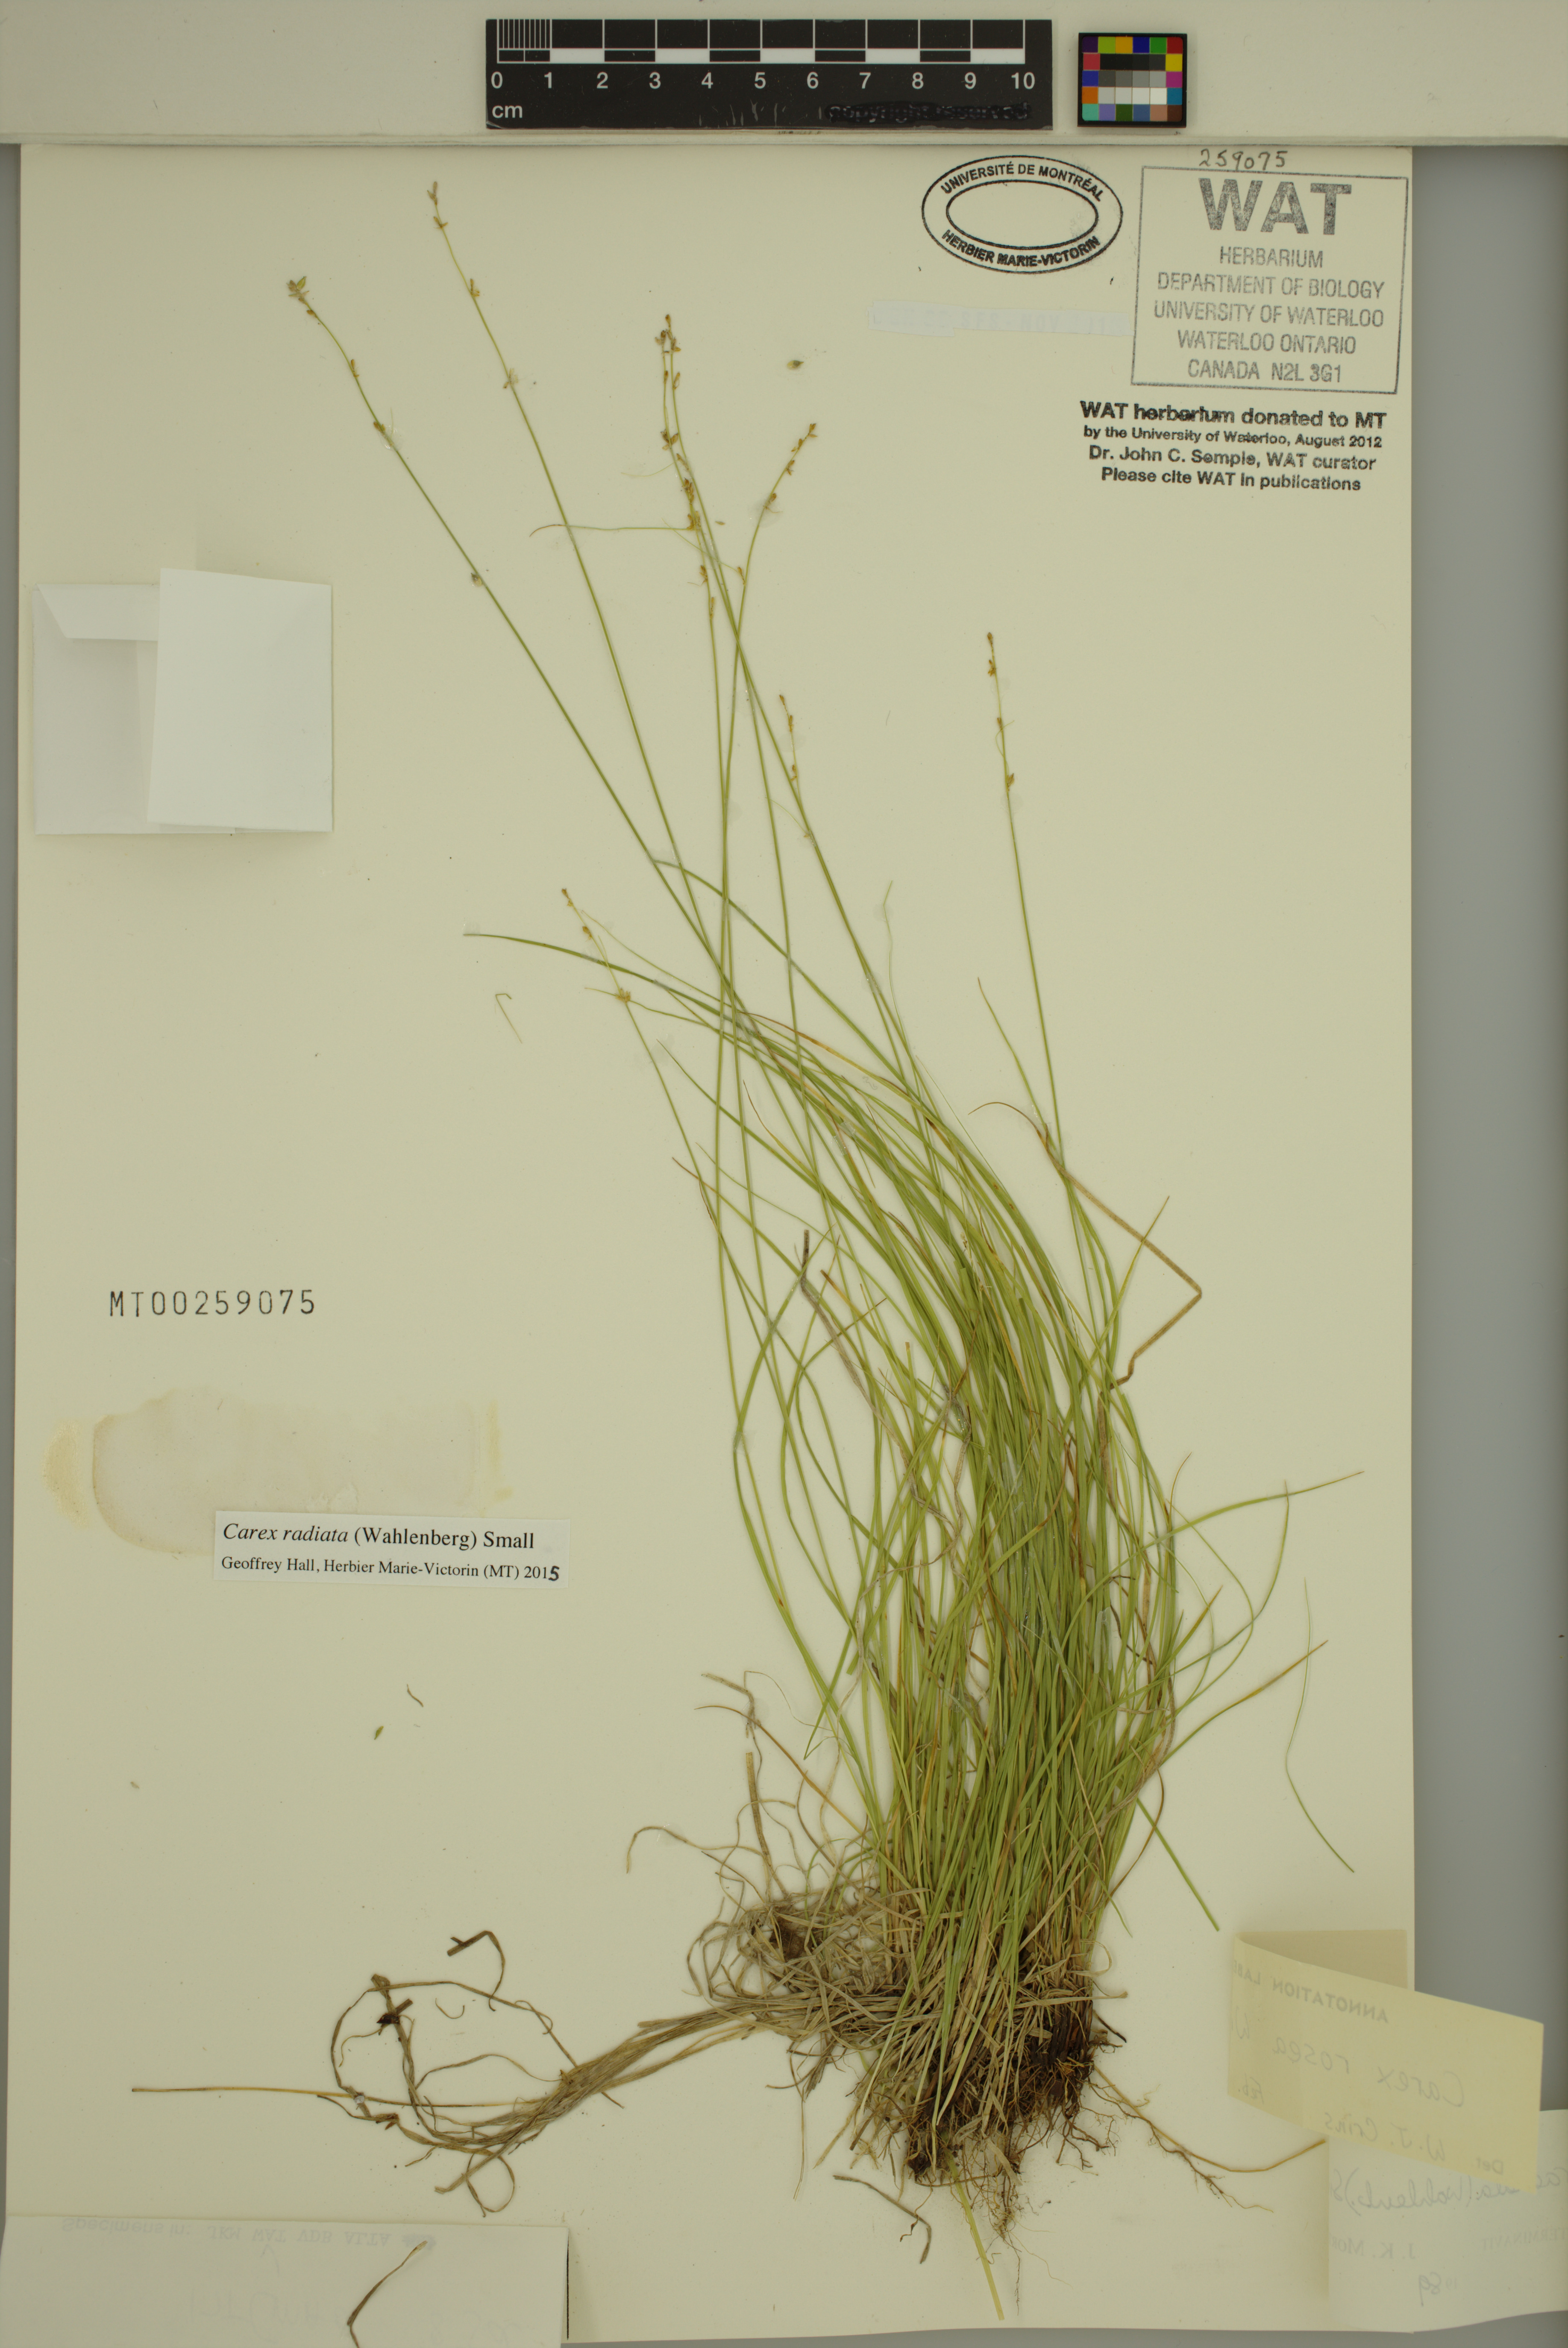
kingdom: Plantae
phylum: Tracheophyta
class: Liliopsida
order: Poales
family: Cyperaceae
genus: Carex
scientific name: Carex radiata
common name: Eastern star sedge
